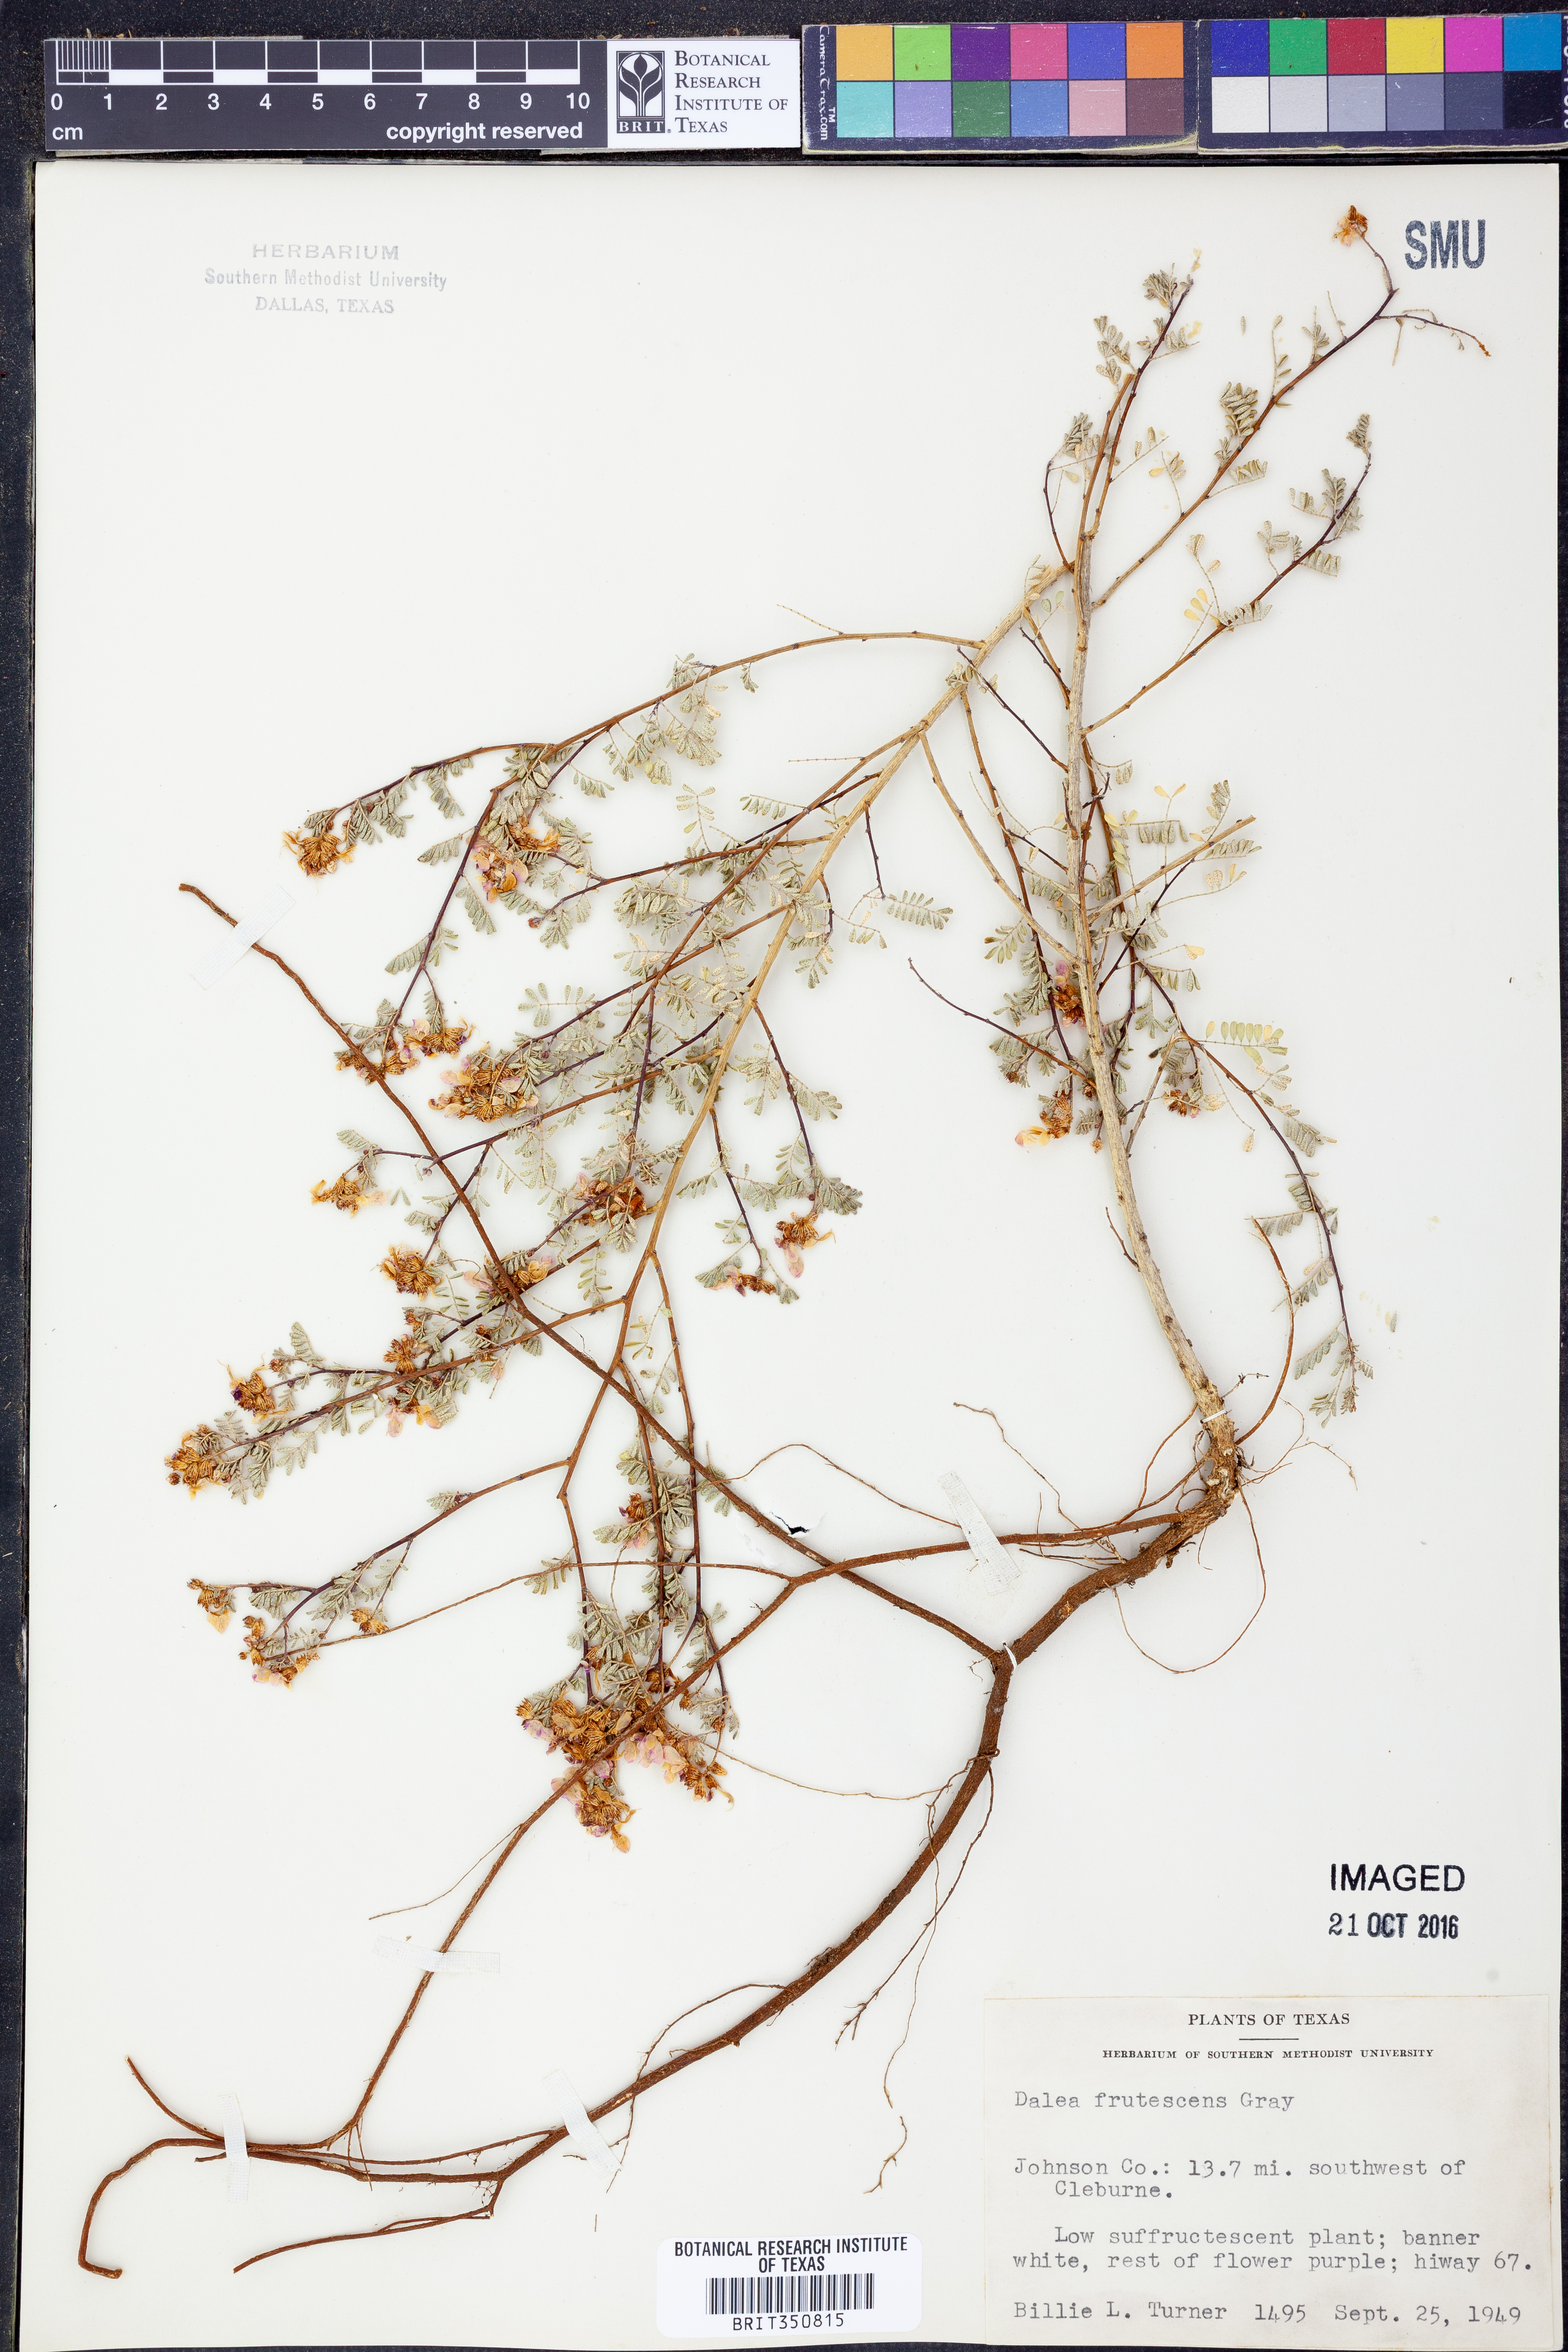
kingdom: Plantae
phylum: Tracheophyta
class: Magnoliopsida
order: Fabales
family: Fabaceae
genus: Dalea
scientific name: Dalea frutescens
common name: Black dalea
